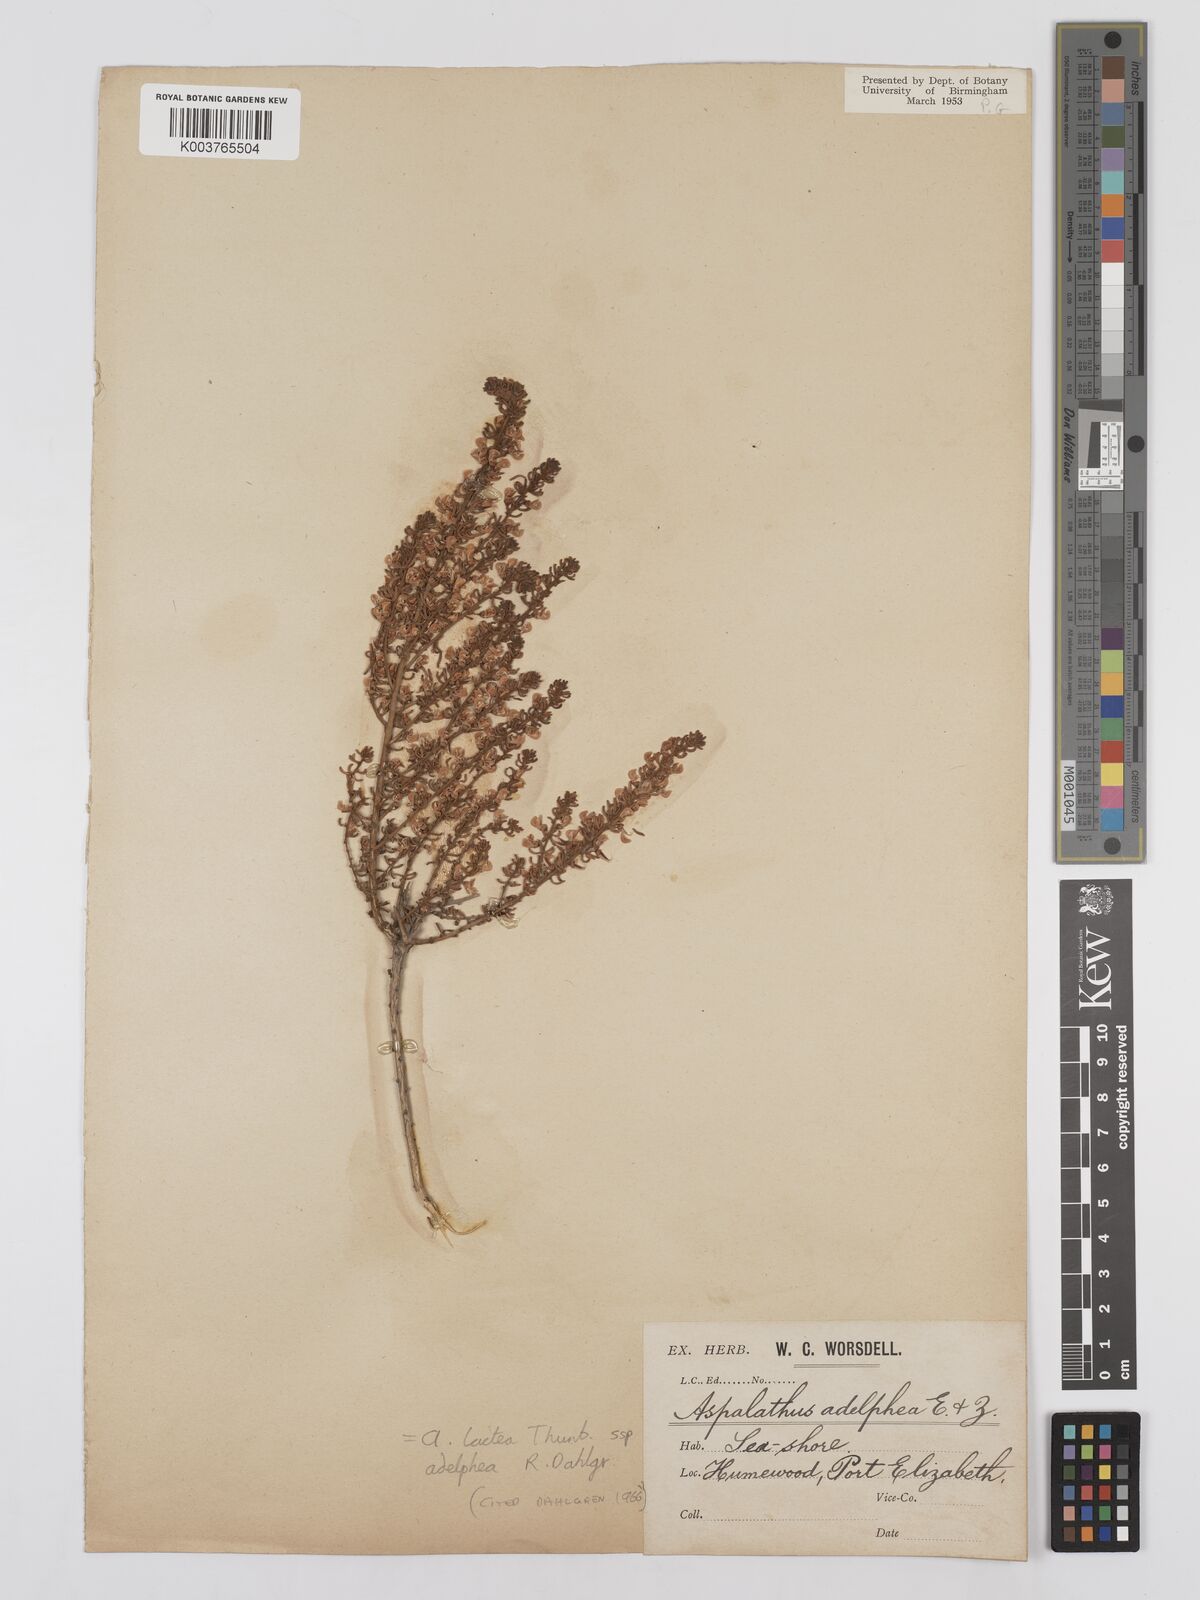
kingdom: Plantae
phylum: Tracheophyta
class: Magnoliopsida
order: Fabales
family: Fabaceae
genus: Aspalathus
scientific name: Aspalathus lactea
